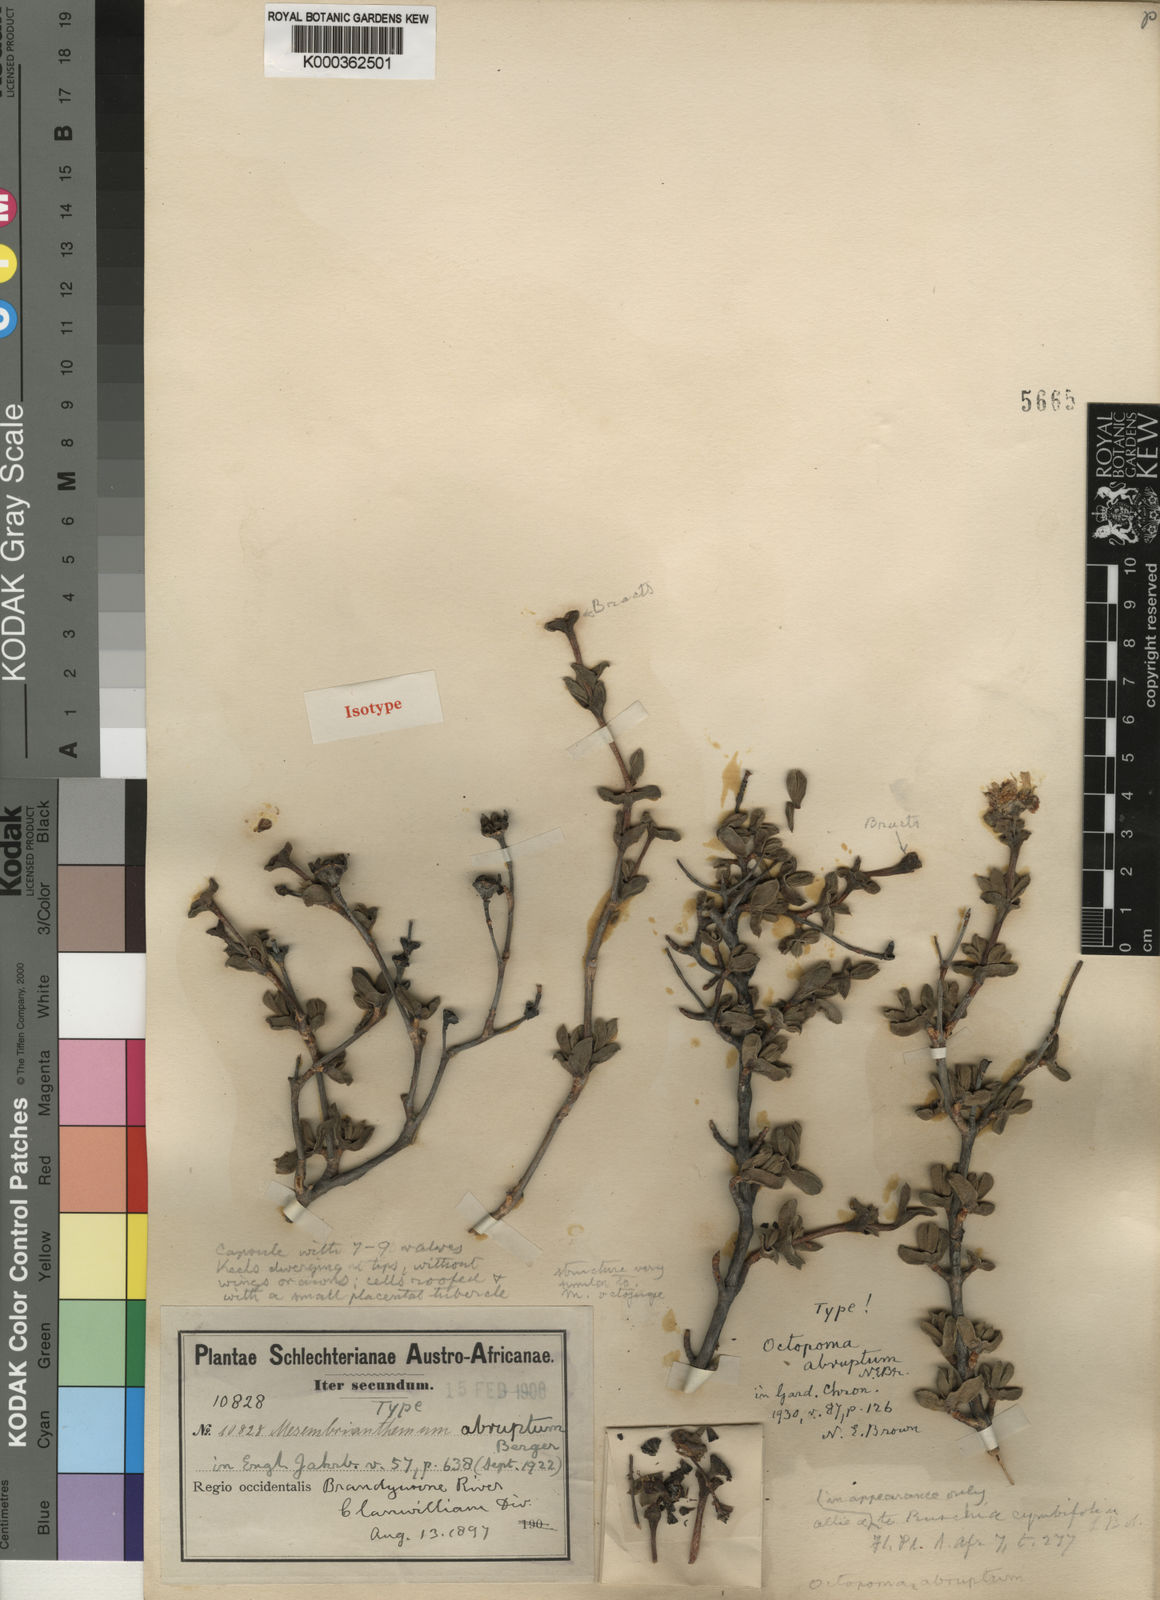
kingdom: Plantae
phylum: Tracheophyta
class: Magnoliopsida
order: Caryophyllales
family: Aizoaceae
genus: Schlechteranthus
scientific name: Schlechteranthus abruptus
